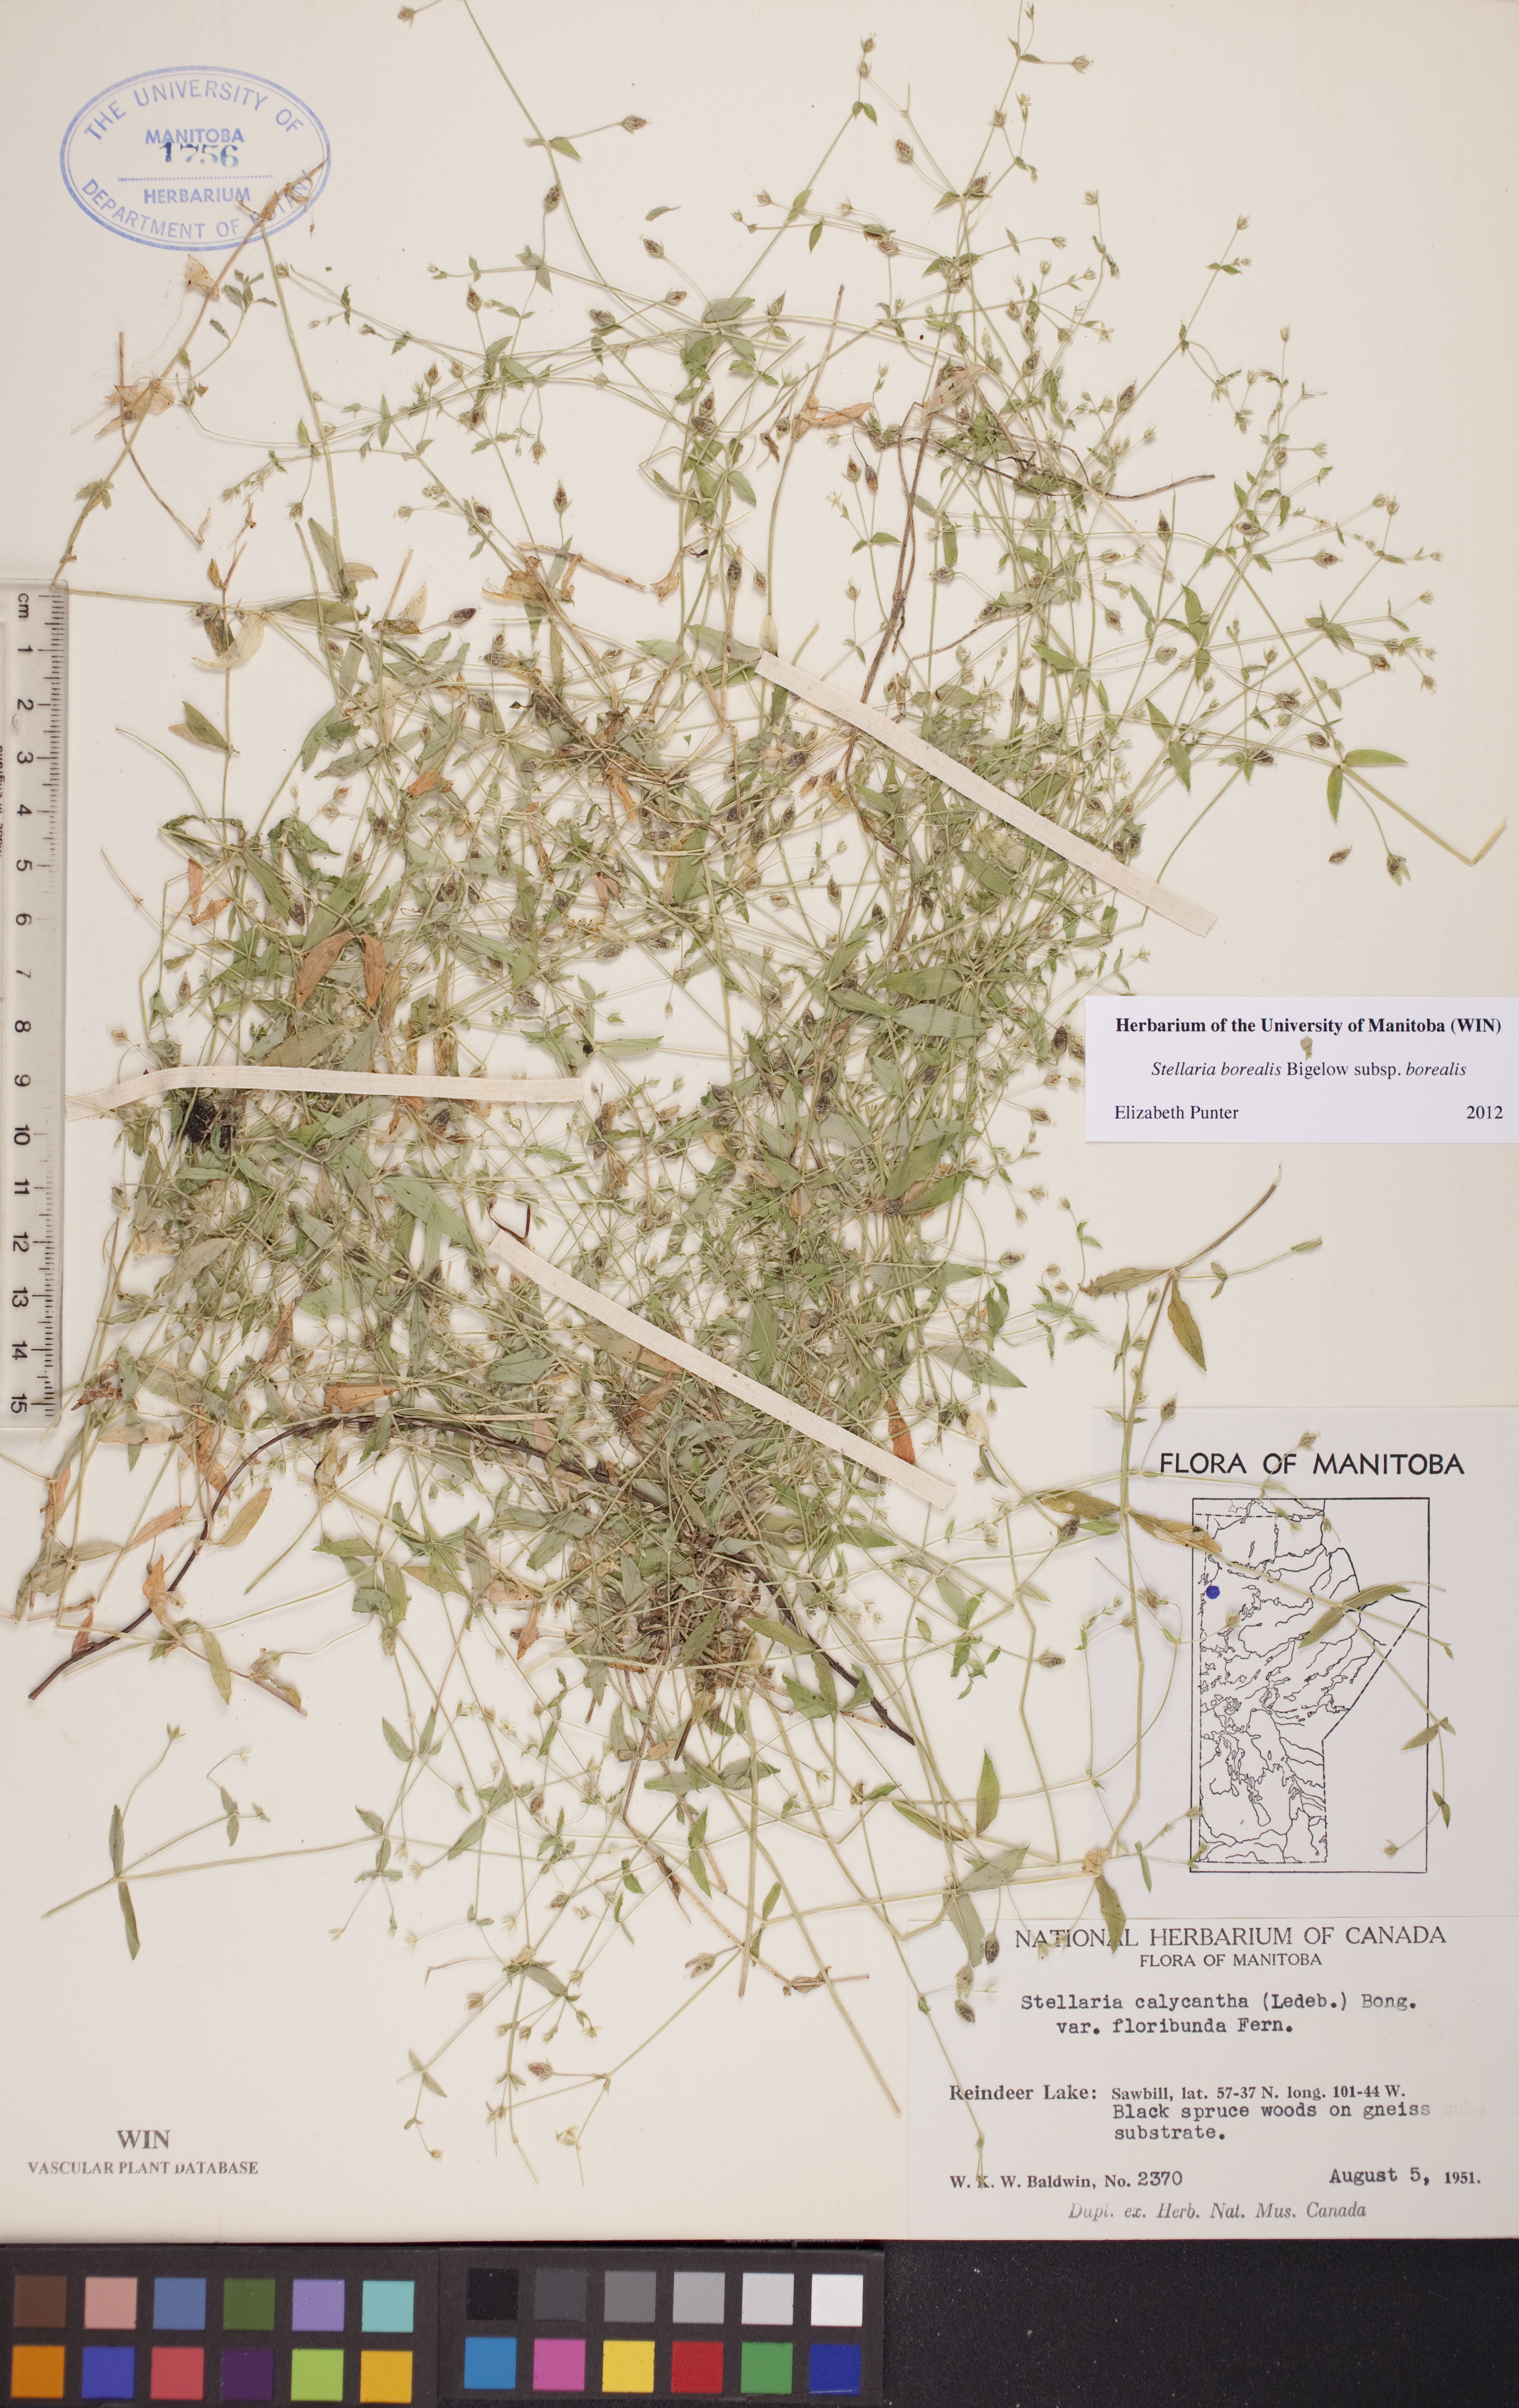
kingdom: Plantae
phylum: Tracheophyta
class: Magnoliopsida
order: Caryophyllales
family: Caryophyllaceae
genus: Stellaria
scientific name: Stellaria borealis
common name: Boreal starwort
